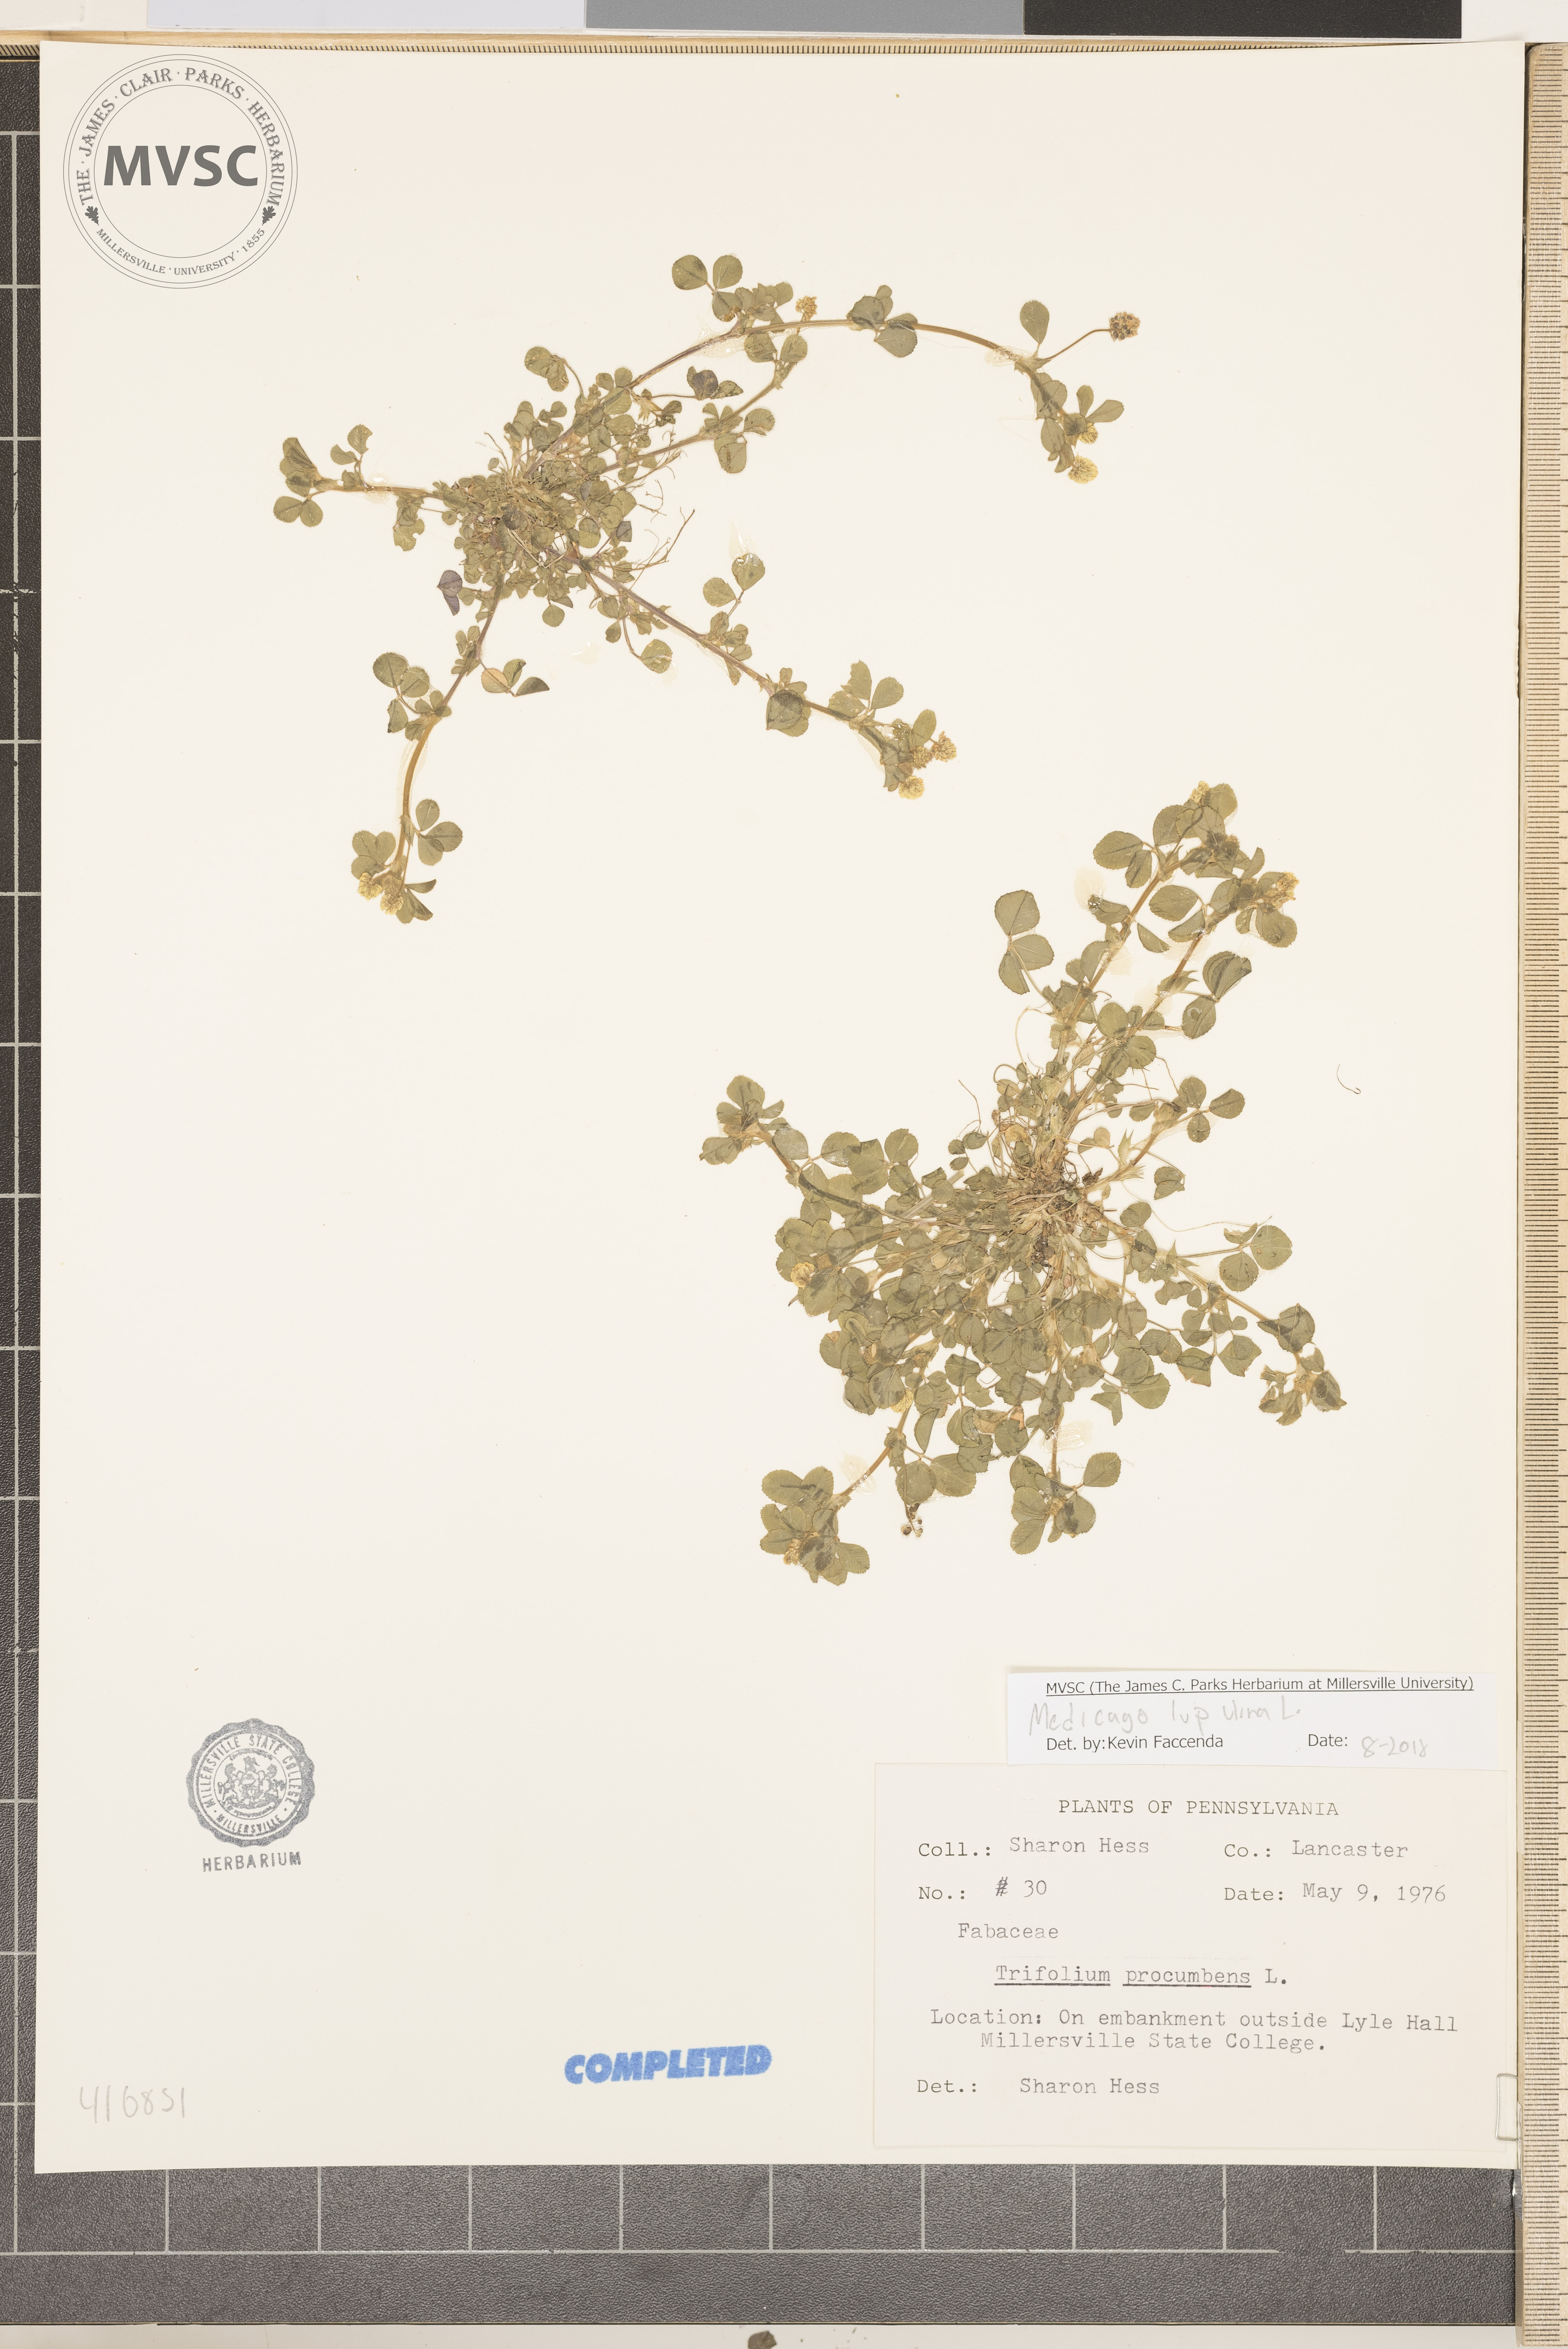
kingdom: Plantae
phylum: Tracheophyta
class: Magnoliopsida
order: Fabales
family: Fabaceae
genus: Medicago
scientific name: Medicago lupulina
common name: Black medick
